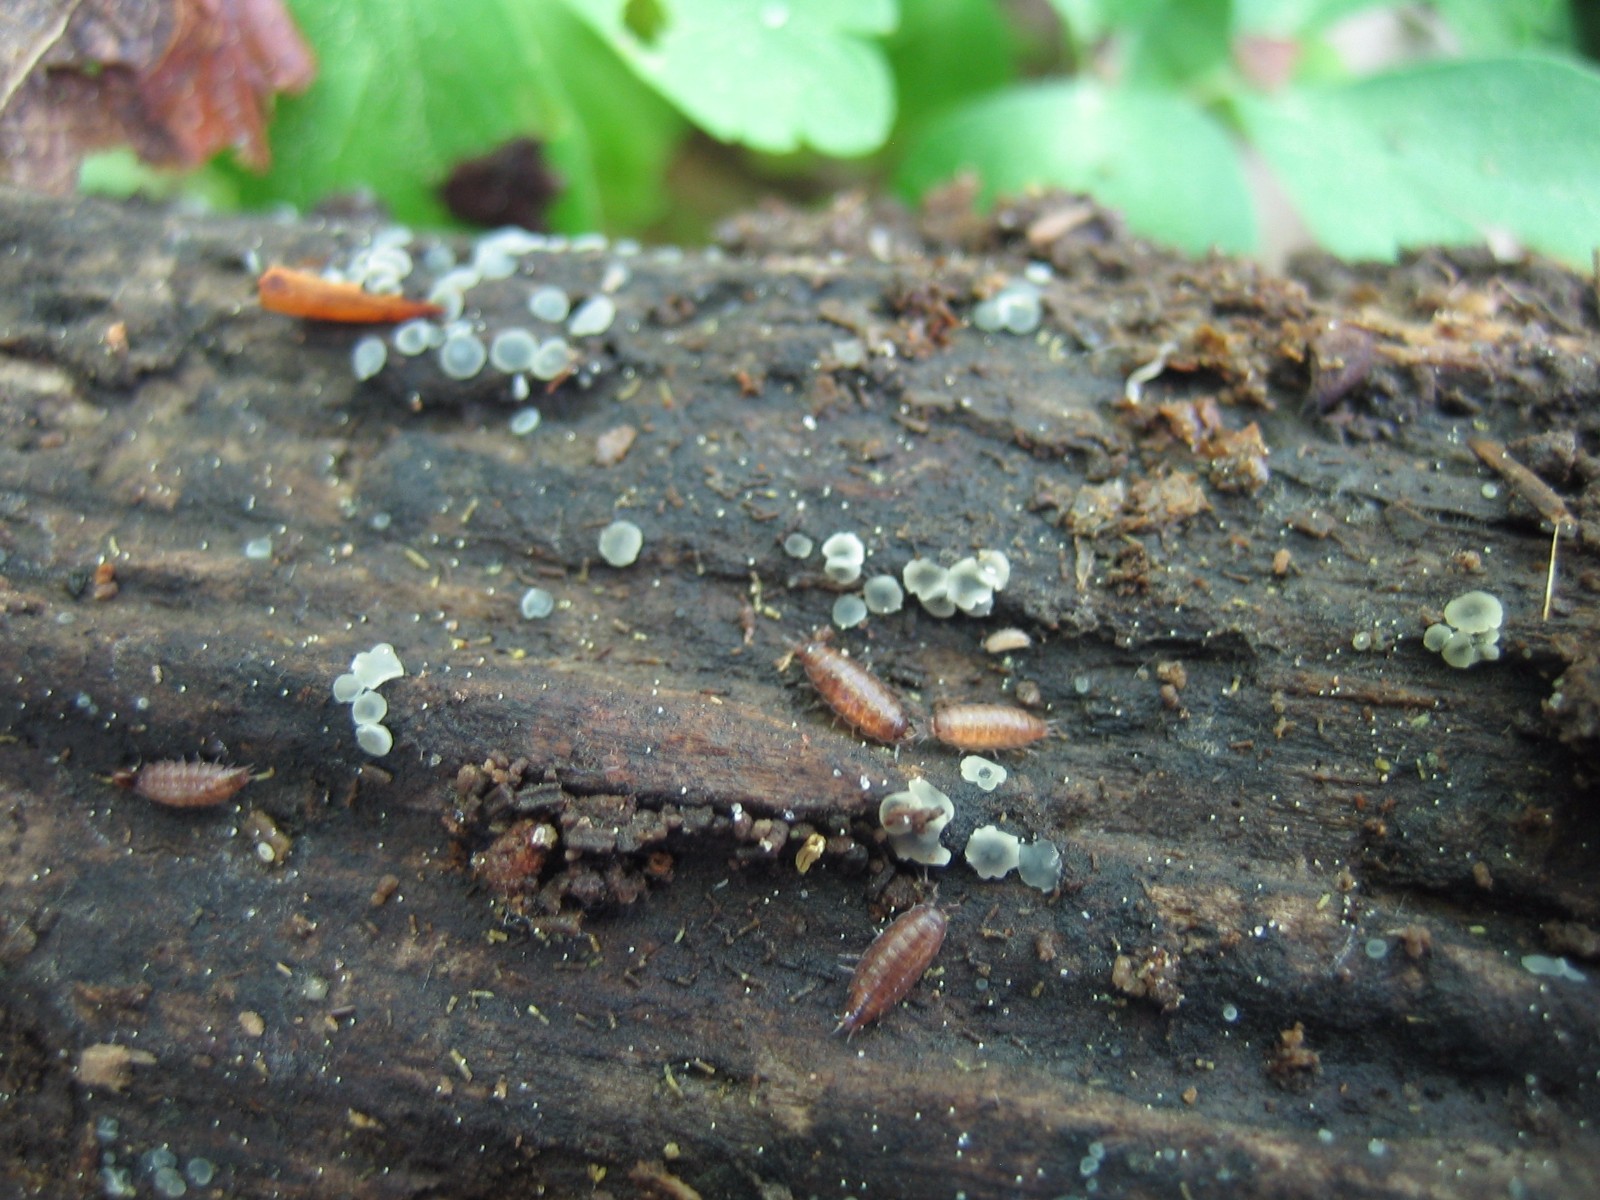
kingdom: Fungi
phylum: Ascomycota
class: Leotiomycetes
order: Helotiales
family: Dermateaceae
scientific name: Dermateaceae
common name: gråskivefamilien
